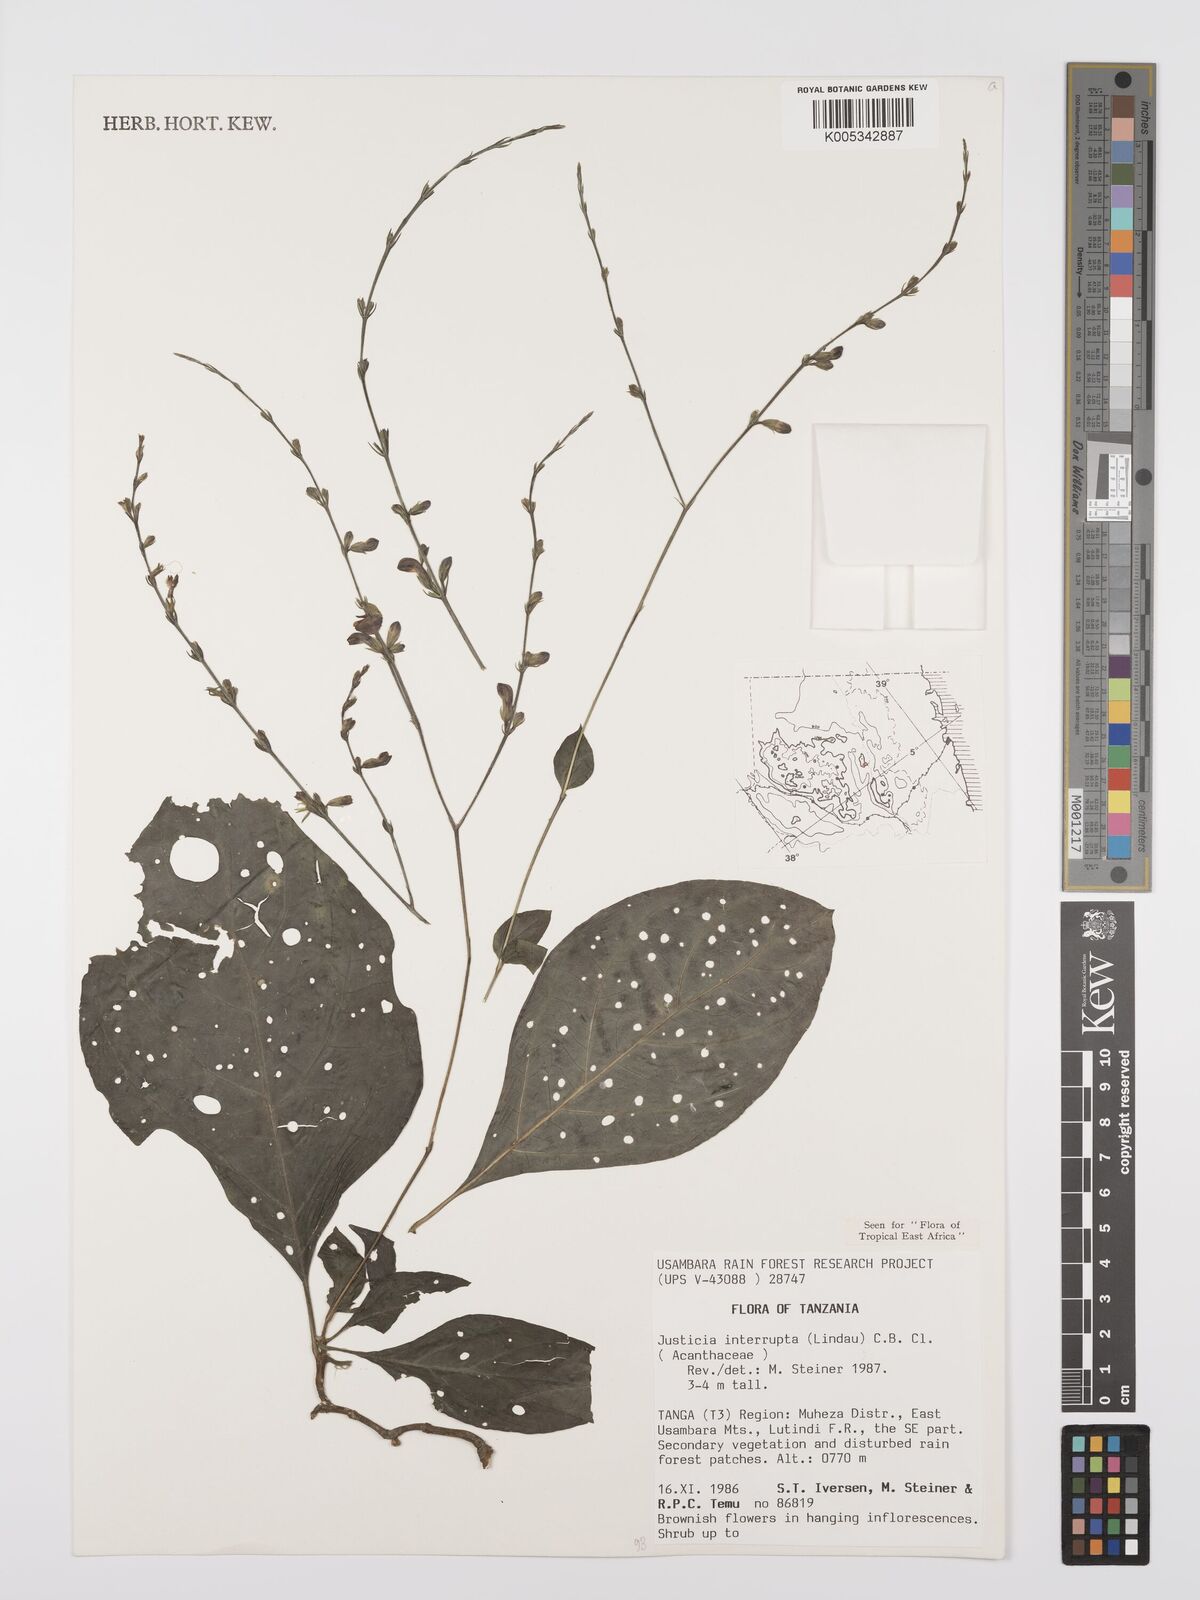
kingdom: Plantae
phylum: Tracheophyta
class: Magnoliopsida
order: Lamiales
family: Acanthaceae
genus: Justicia
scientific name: Justicia plectranthoides
